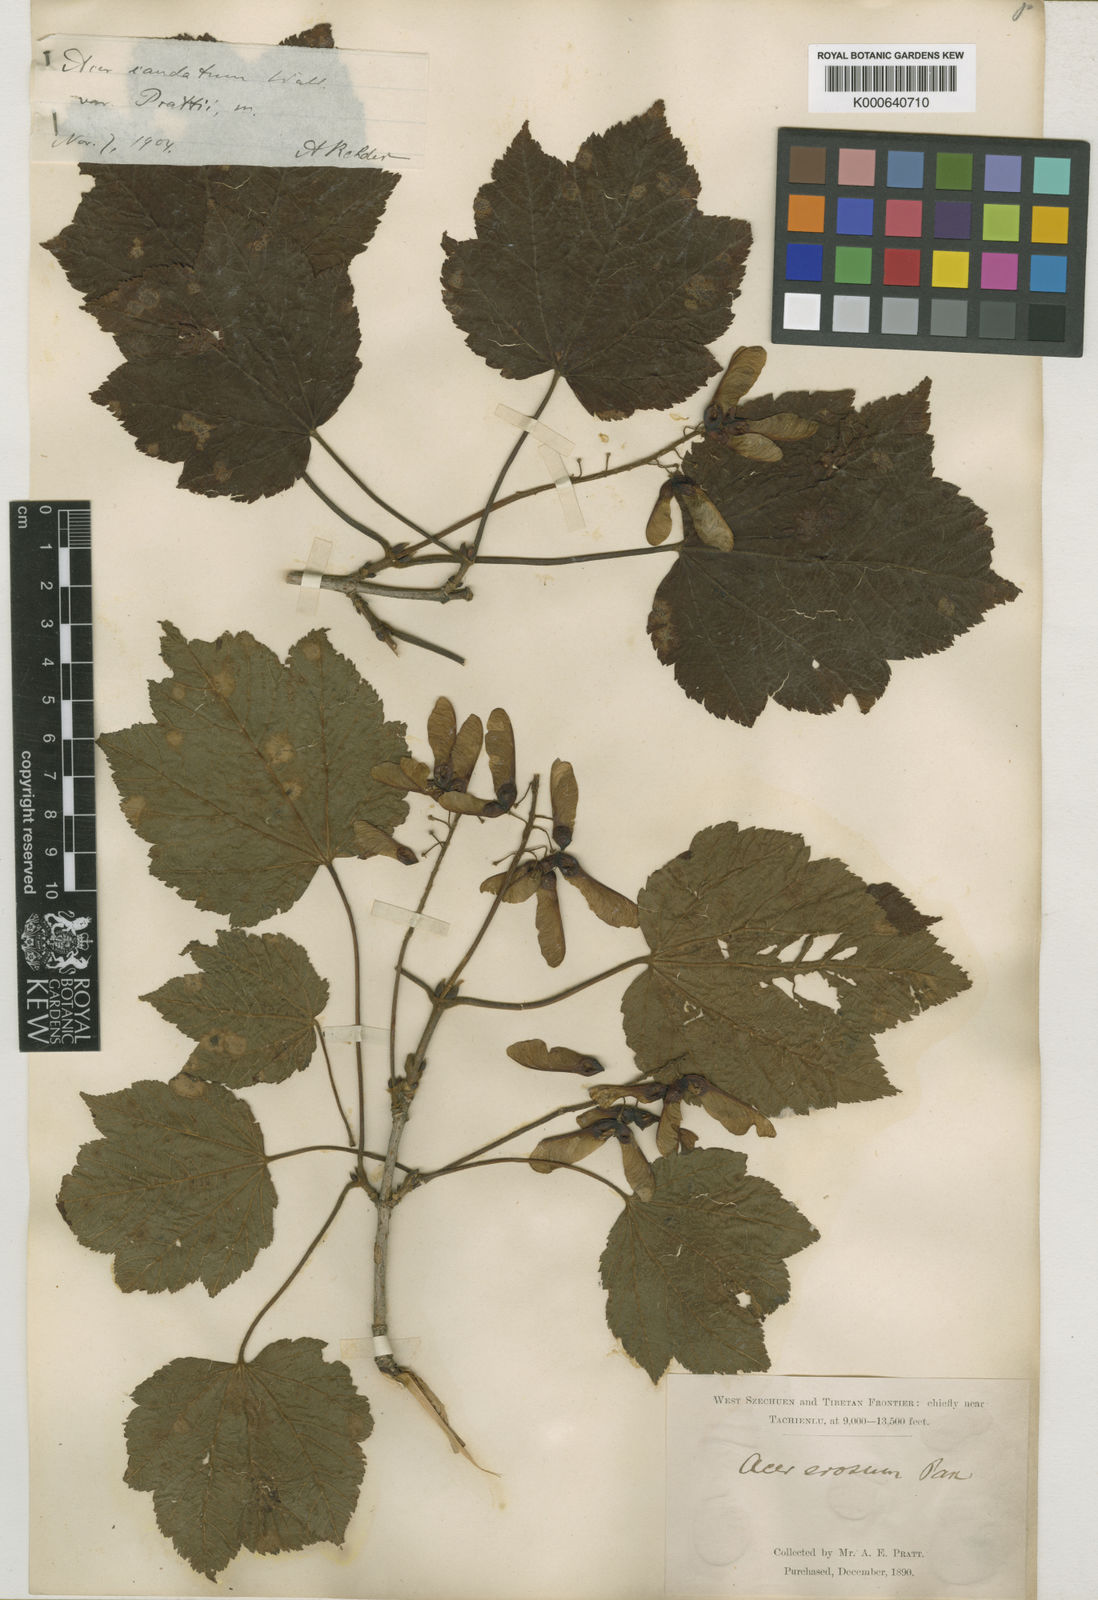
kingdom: Plantae
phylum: Tracheophyta
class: Magnoliopsida
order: Sapindales
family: Sapindaceae
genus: Acer
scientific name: Acer caudatum
